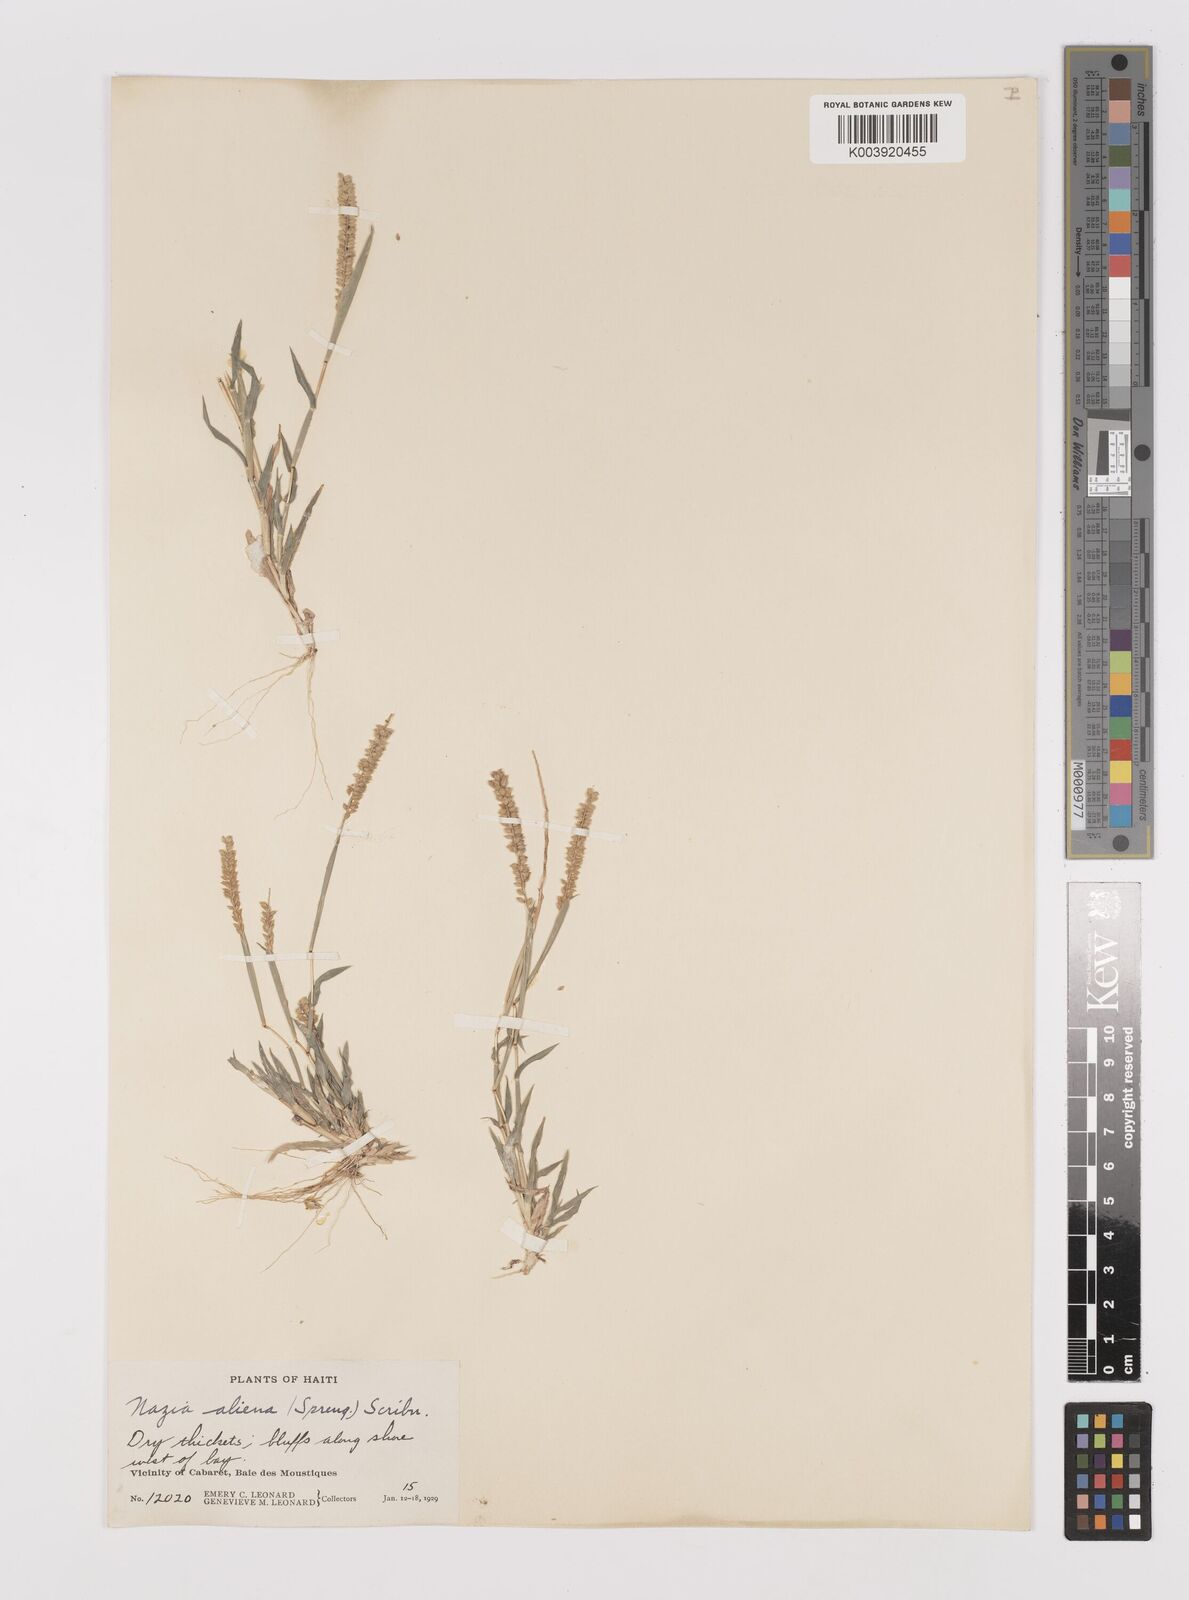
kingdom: Plantae
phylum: Tracheophyta
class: Liliopsida
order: Poales
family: Poaceae
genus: Tragus
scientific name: Tragus berteronianus
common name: African bur-grass
